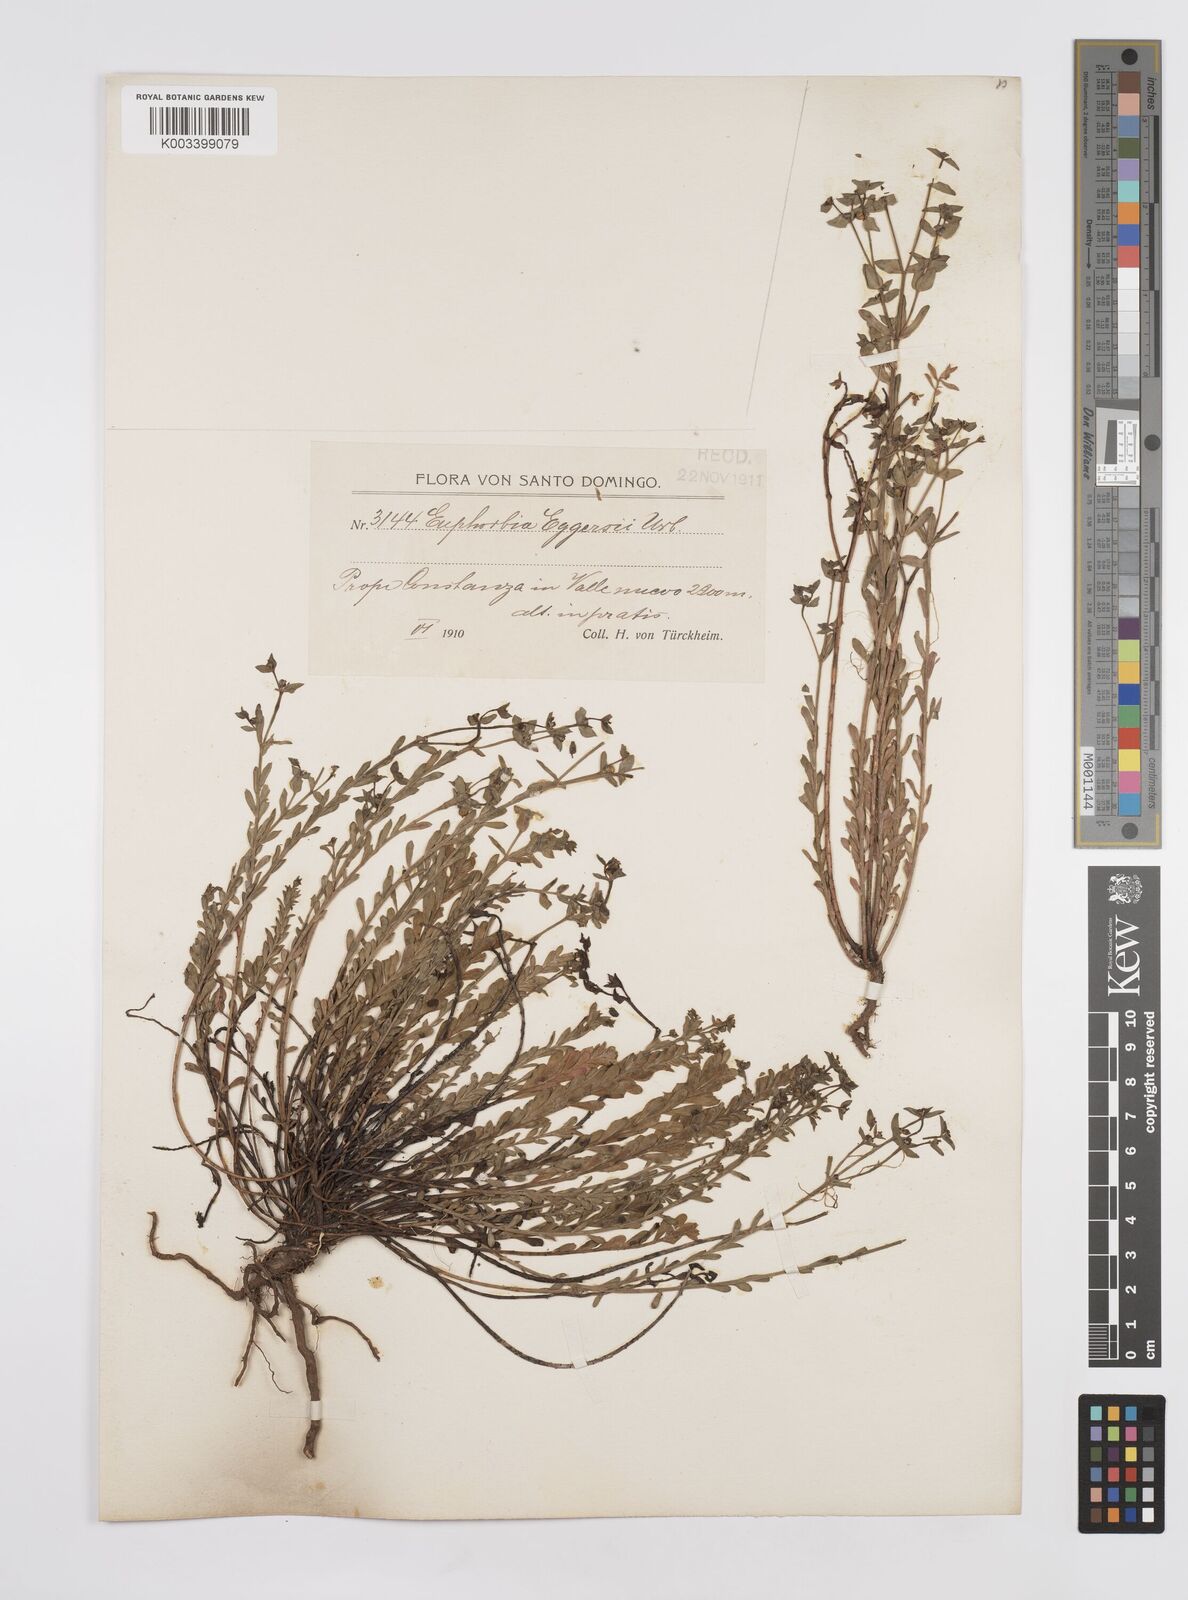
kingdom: Plantae
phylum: Tracheophyta
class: Magnoliopsida
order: Malpighiales
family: Euphorbiaceae
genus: Euphorbia
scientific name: Euphorbia eggersii
